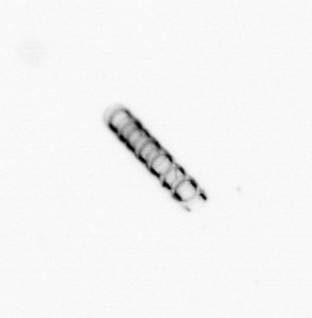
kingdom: Chromista
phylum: Ochrophyta
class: Bacillariophyceae
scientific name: Bacillariophyceae
